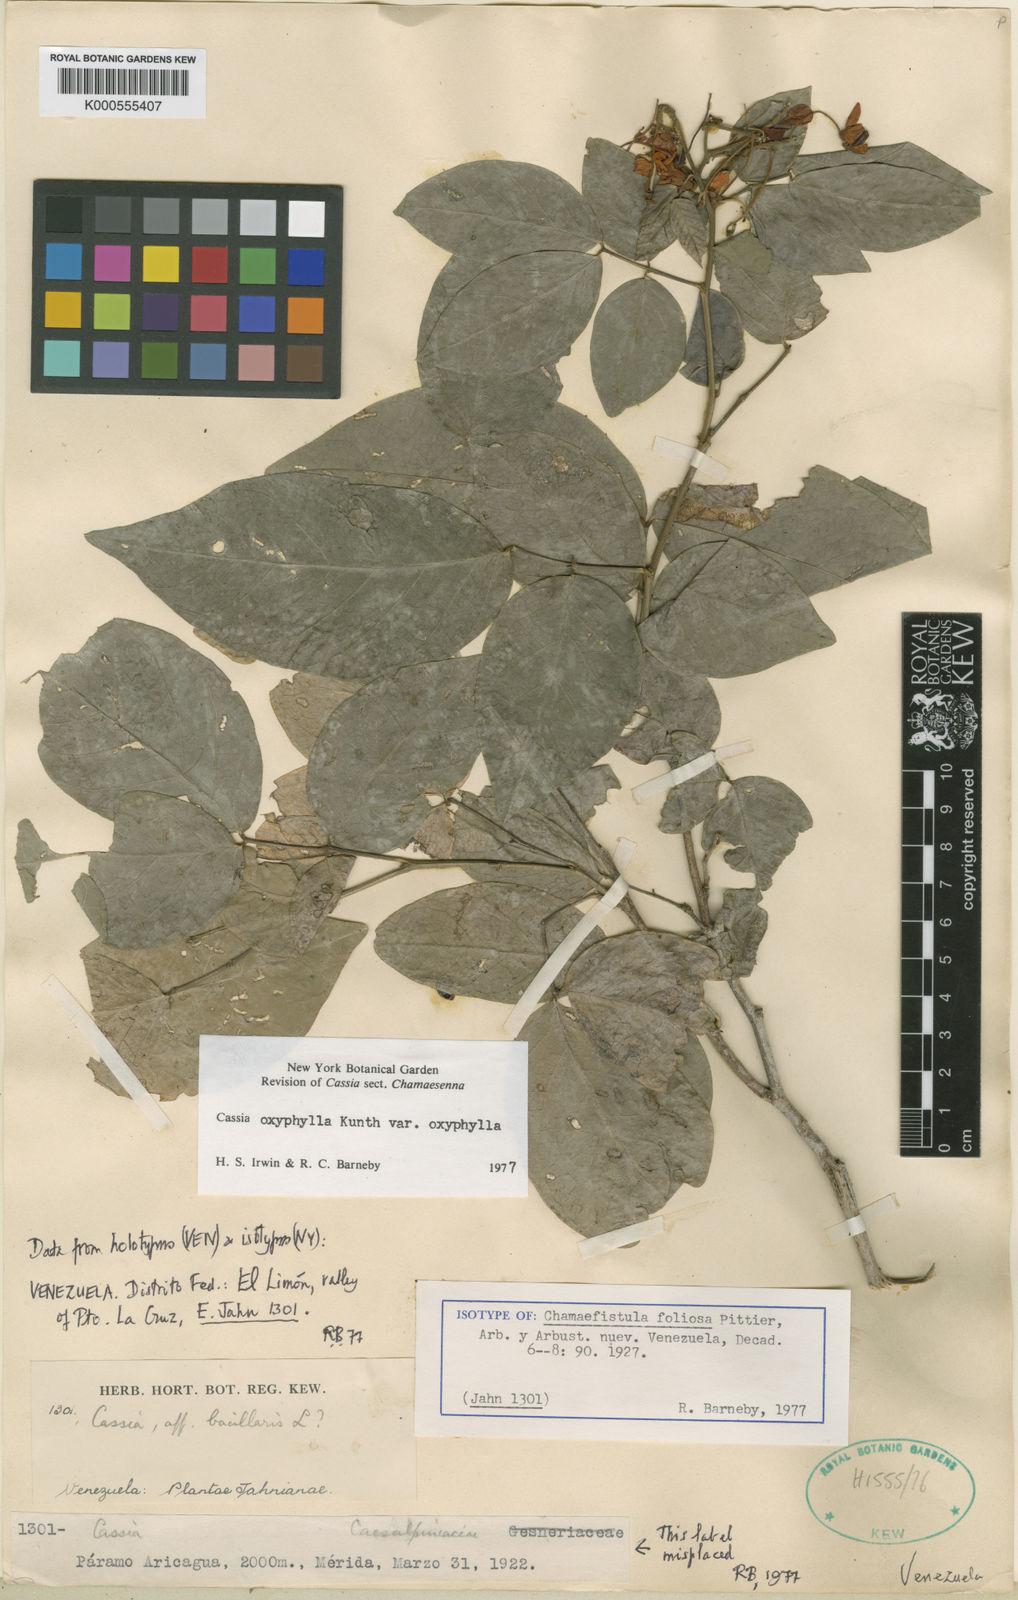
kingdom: Plantae
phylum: Tracheophyta
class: Magnoliopsida
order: Fabales
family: Fabaceae
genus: Senna
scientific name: Senna oxyphylla
